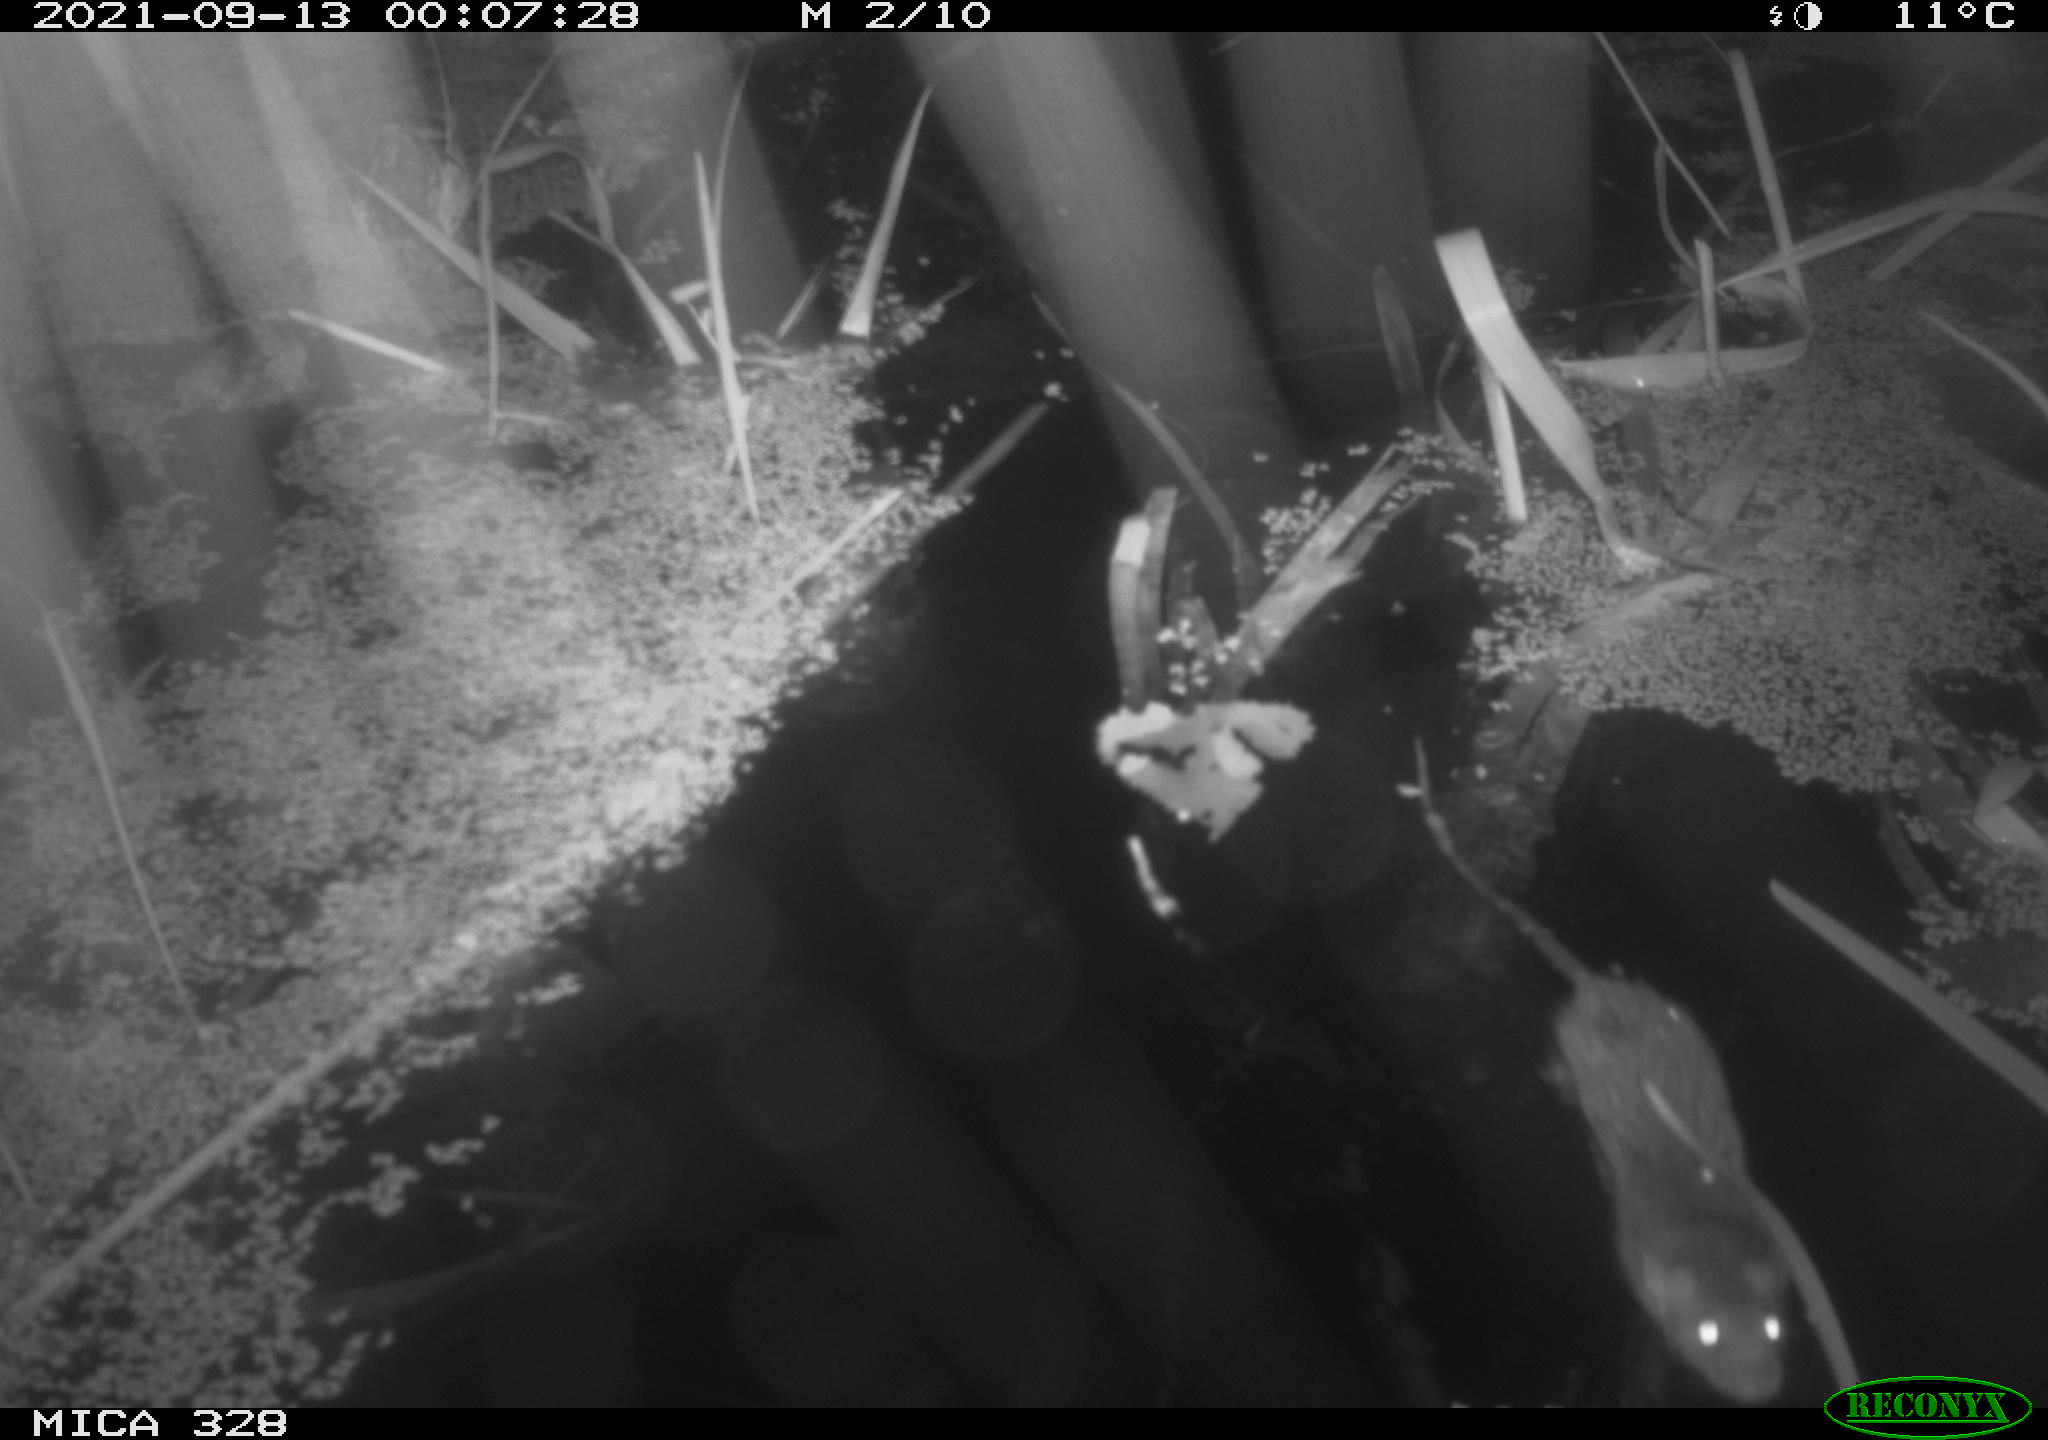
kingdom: Animalia
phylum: Chordata
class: Mammalia
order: Rodentia
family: Muridae
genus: Rattus
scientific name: Rattus norvegicus
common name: Brown rat
